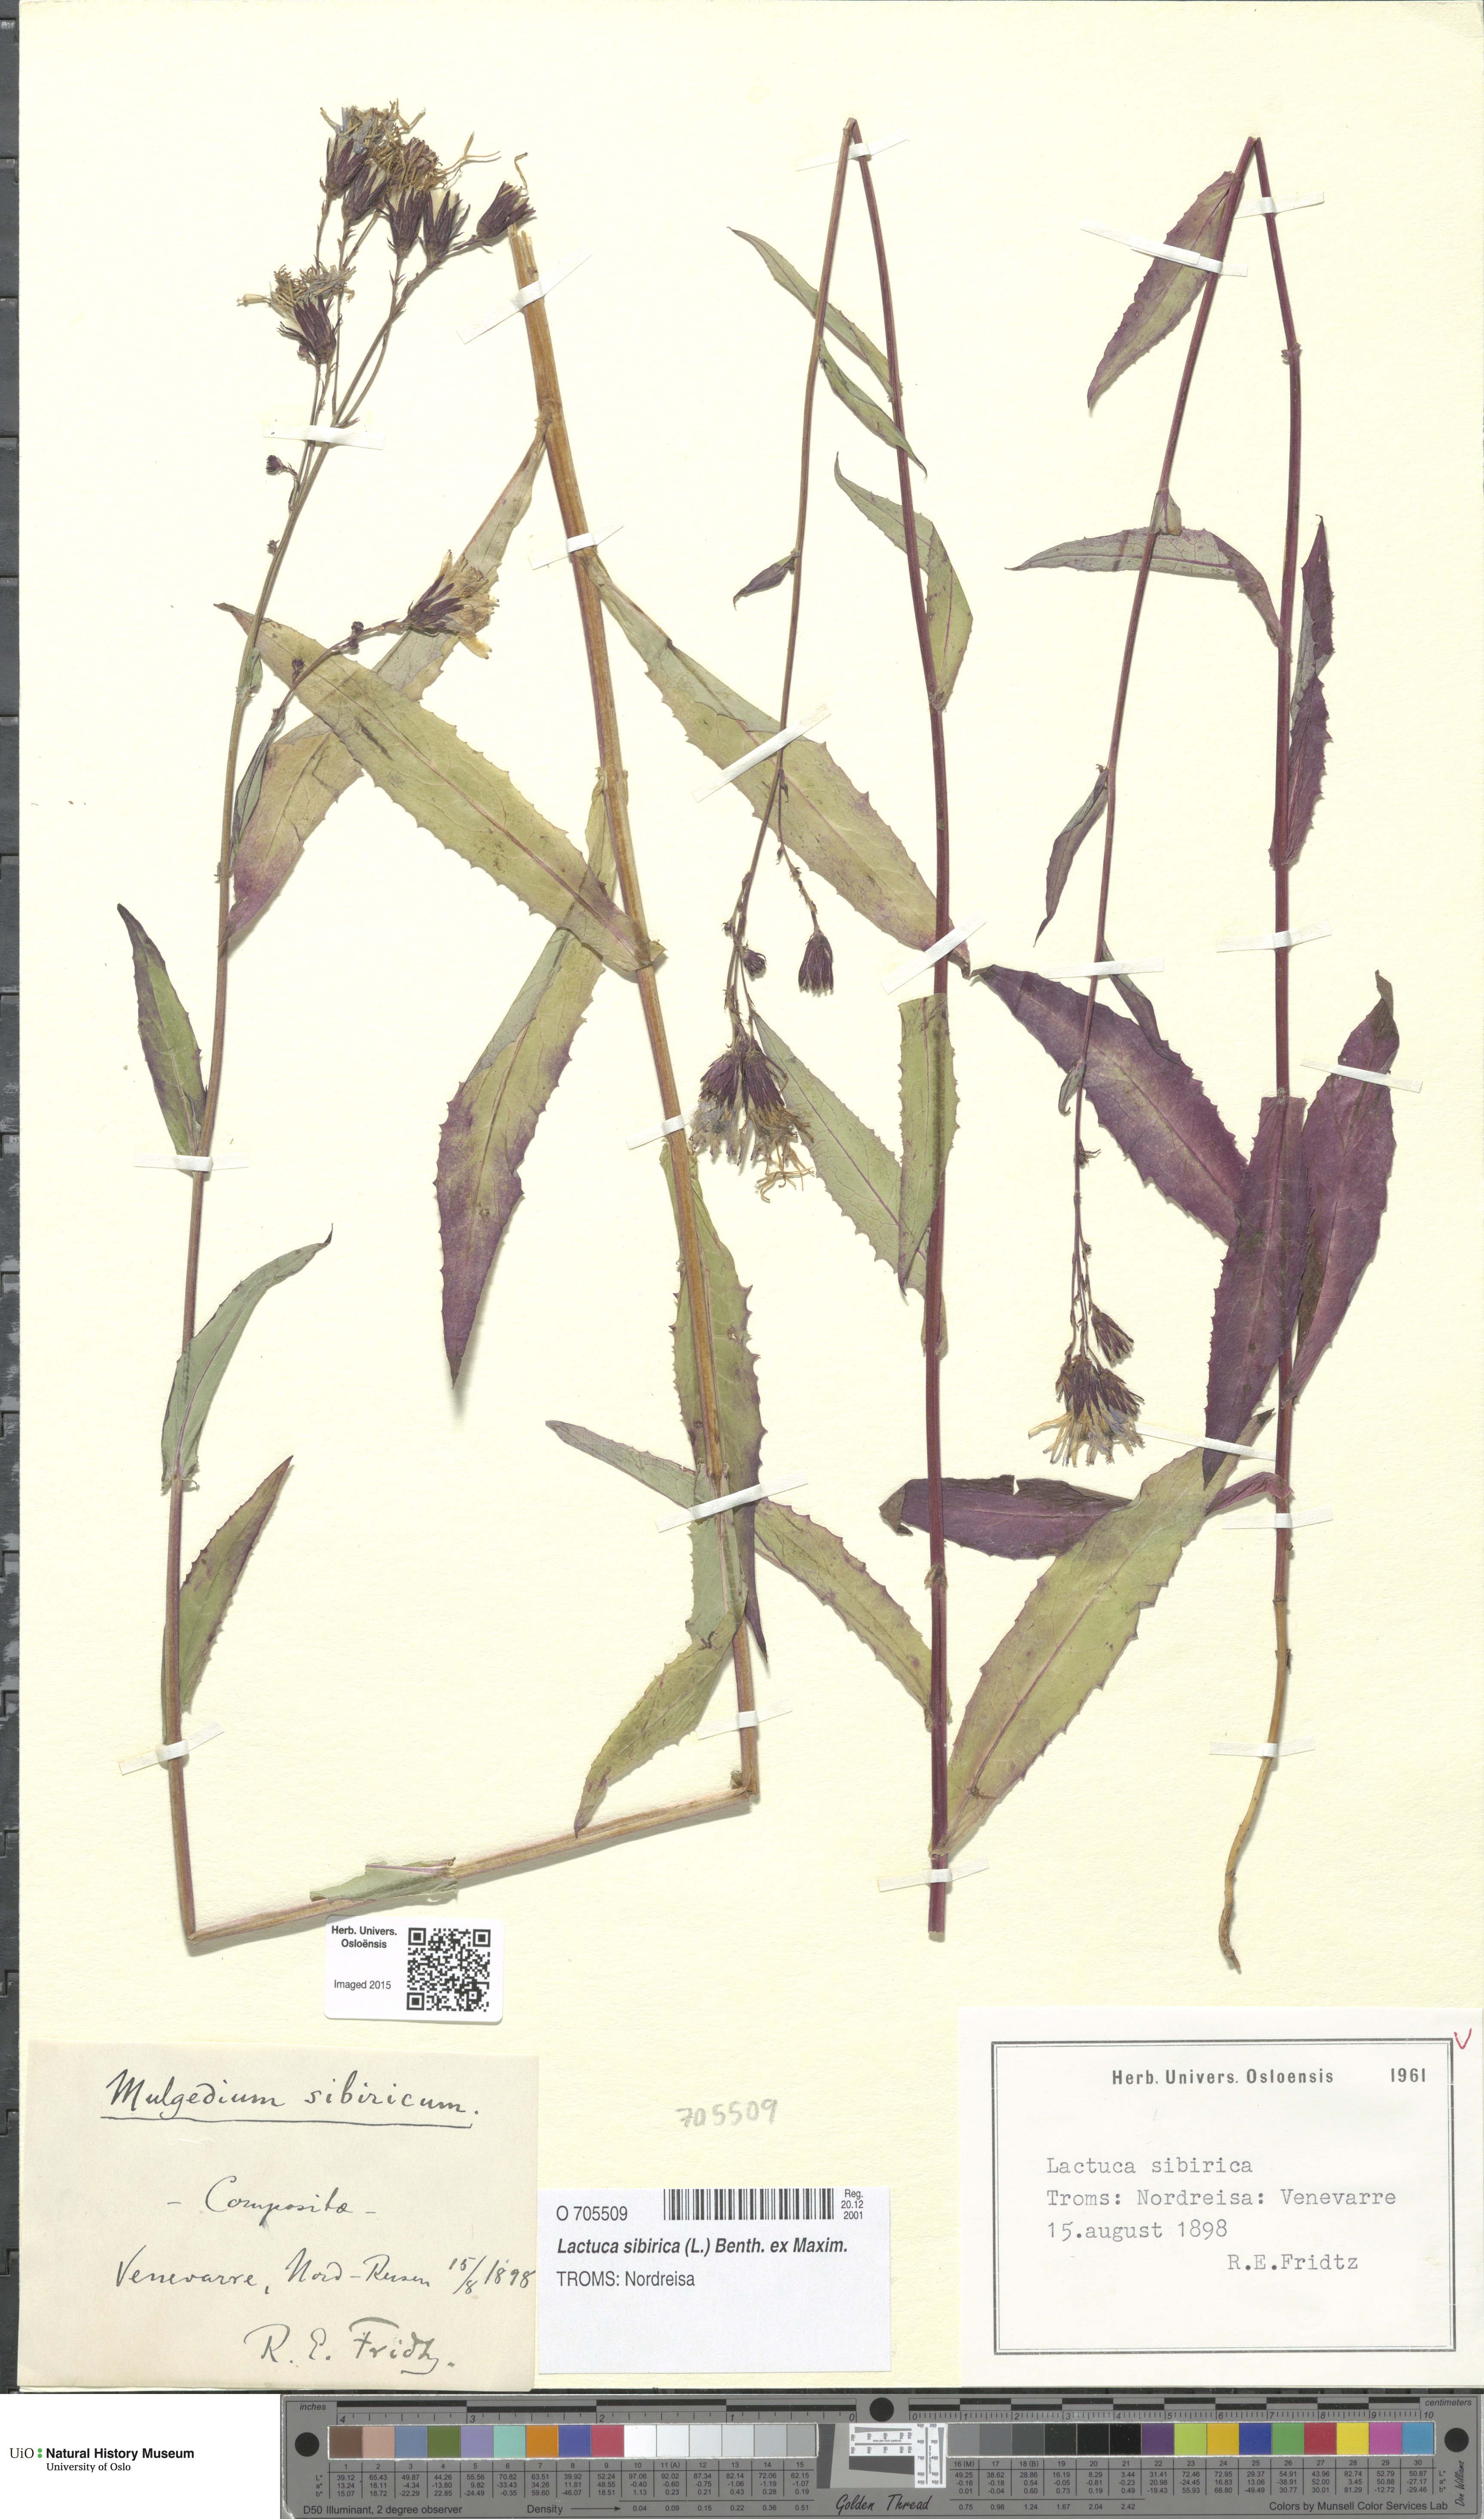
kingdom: Plantae
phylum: Tracheophyta
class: Magnoliopsida
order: Asterales
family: Asteraceae
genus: Lactuca
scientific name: Lactuca sibirica
